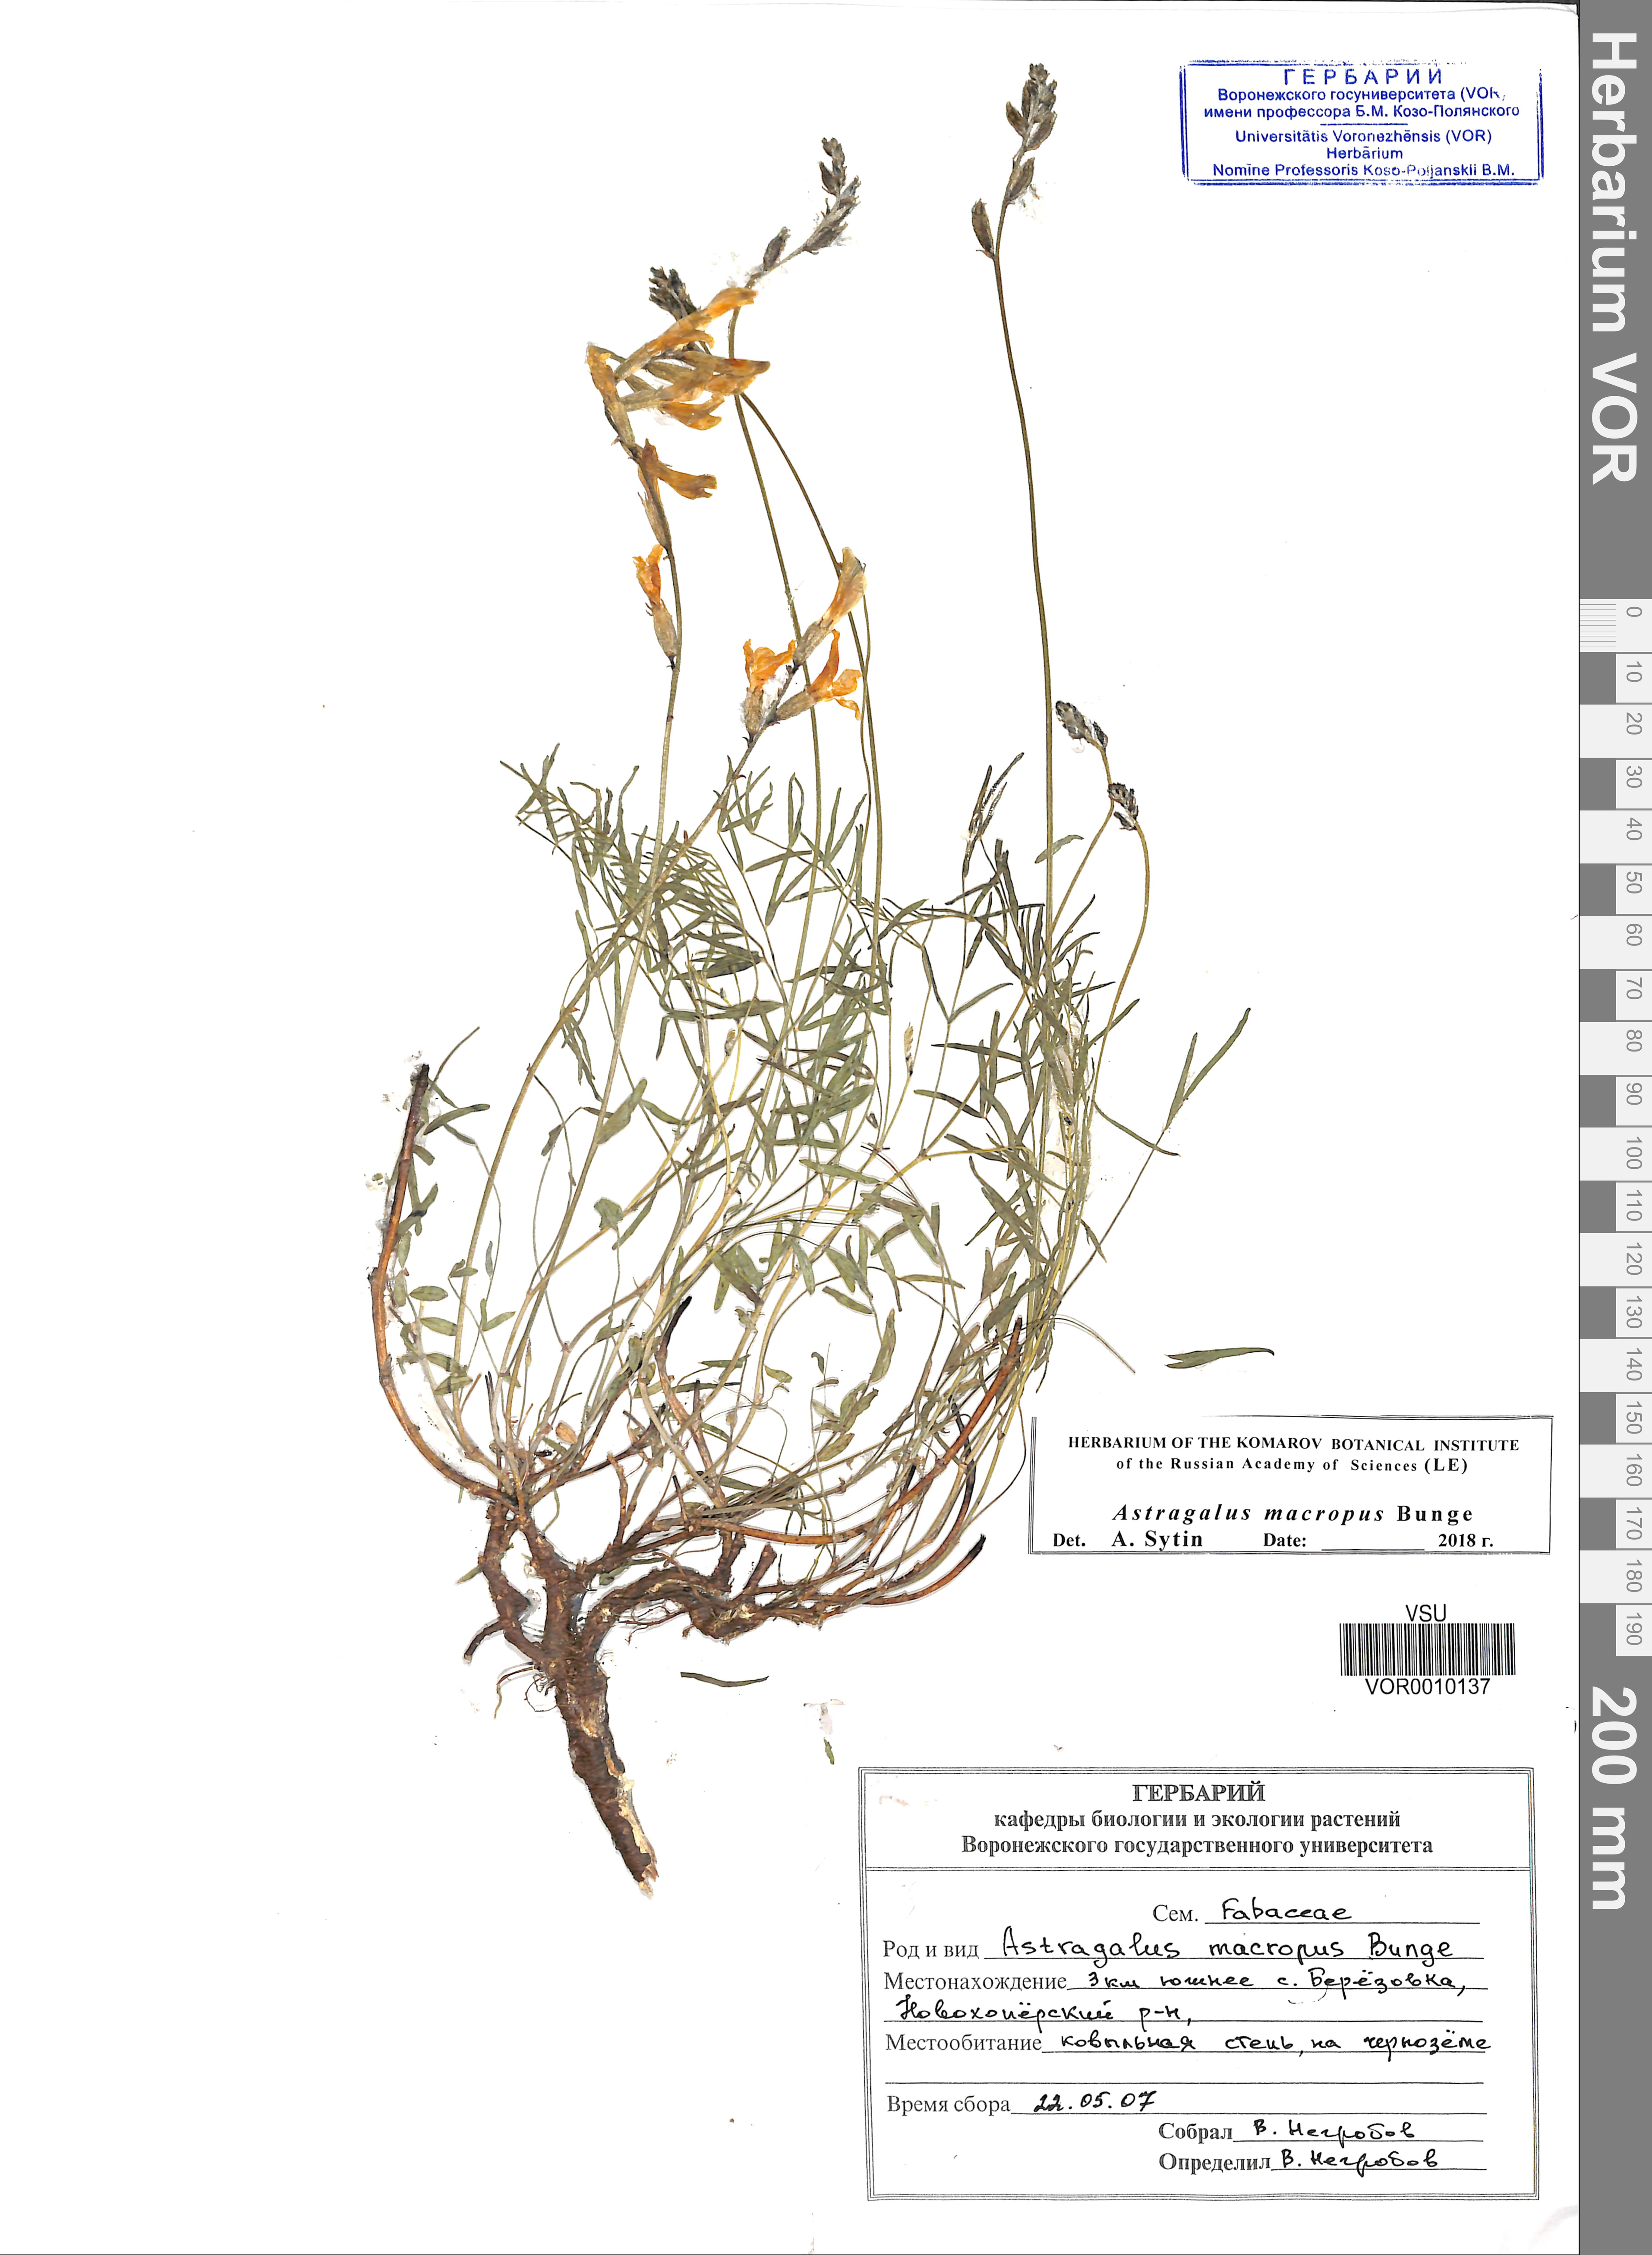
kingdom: Plantae
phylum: Tracheophyta
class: Magnoliopsida
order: Fabales
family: Fabaceae
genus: Astragalus
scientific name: Astragalus macropus
